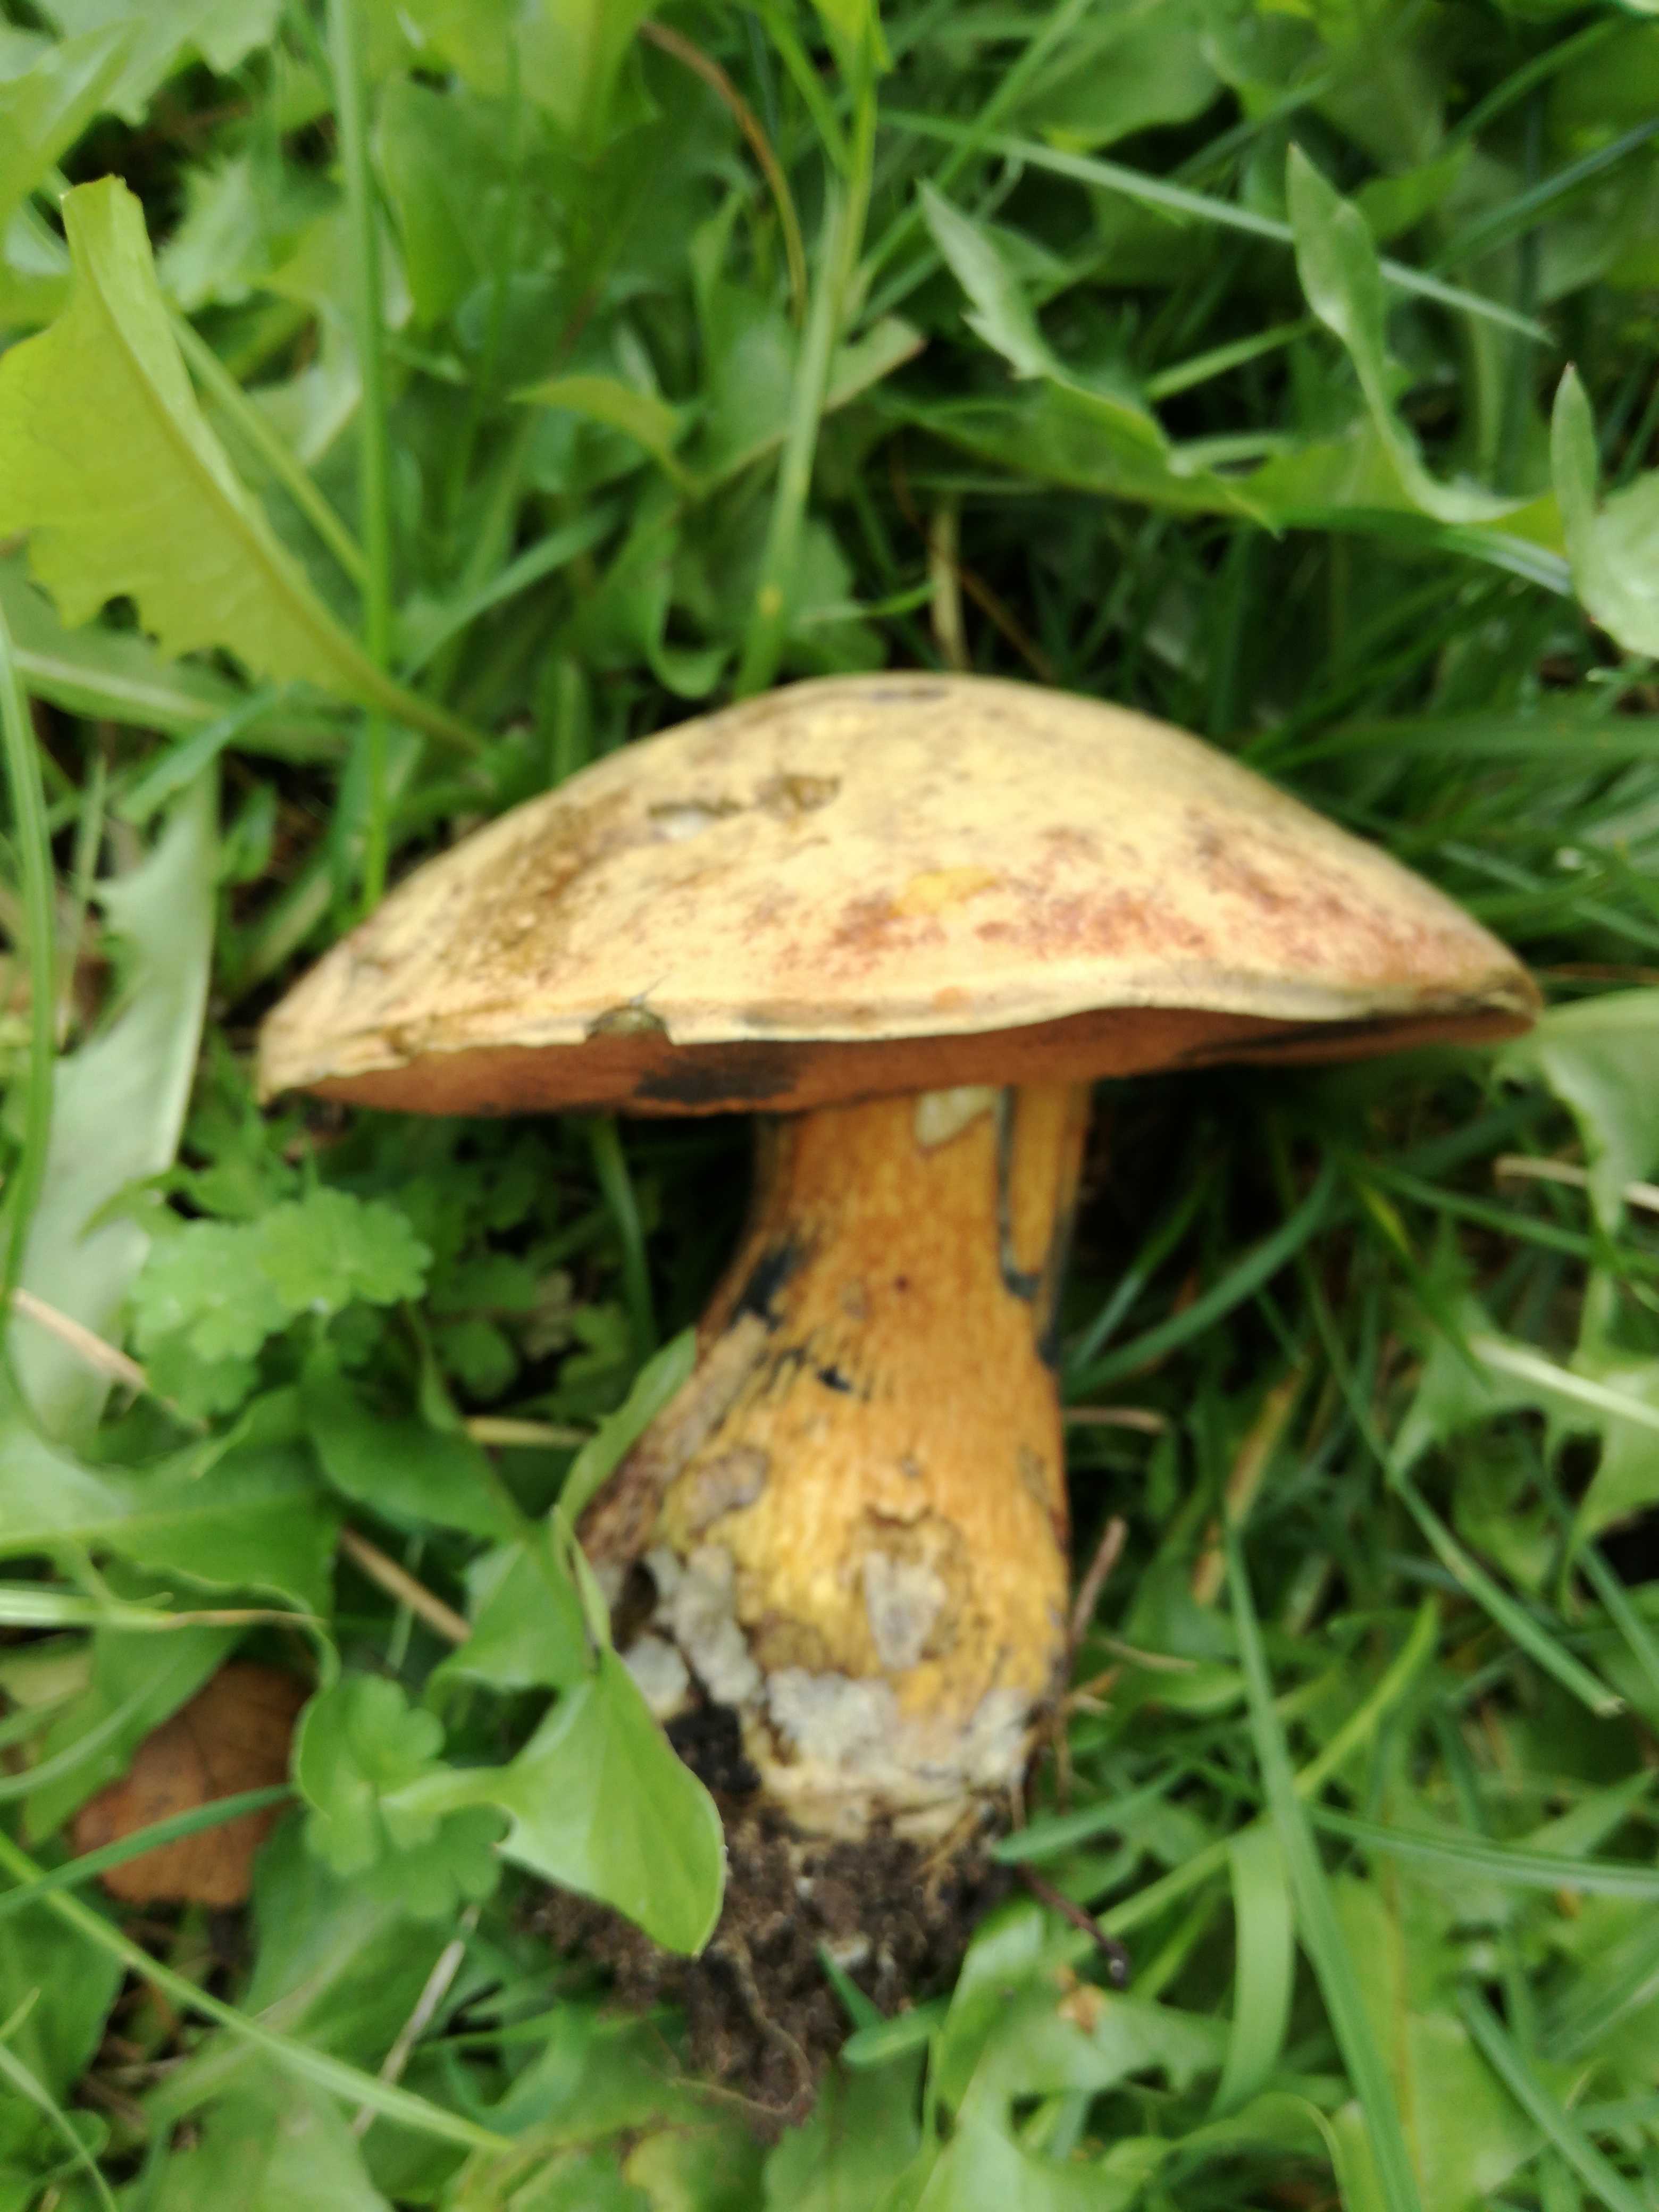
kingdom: Fungi
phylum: Basidiomycota
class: Agaricomycetes
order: Boletales
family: Boletaceae
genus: Suillellus
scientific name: Suillellus luridus
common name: netstokket indigorørhat
